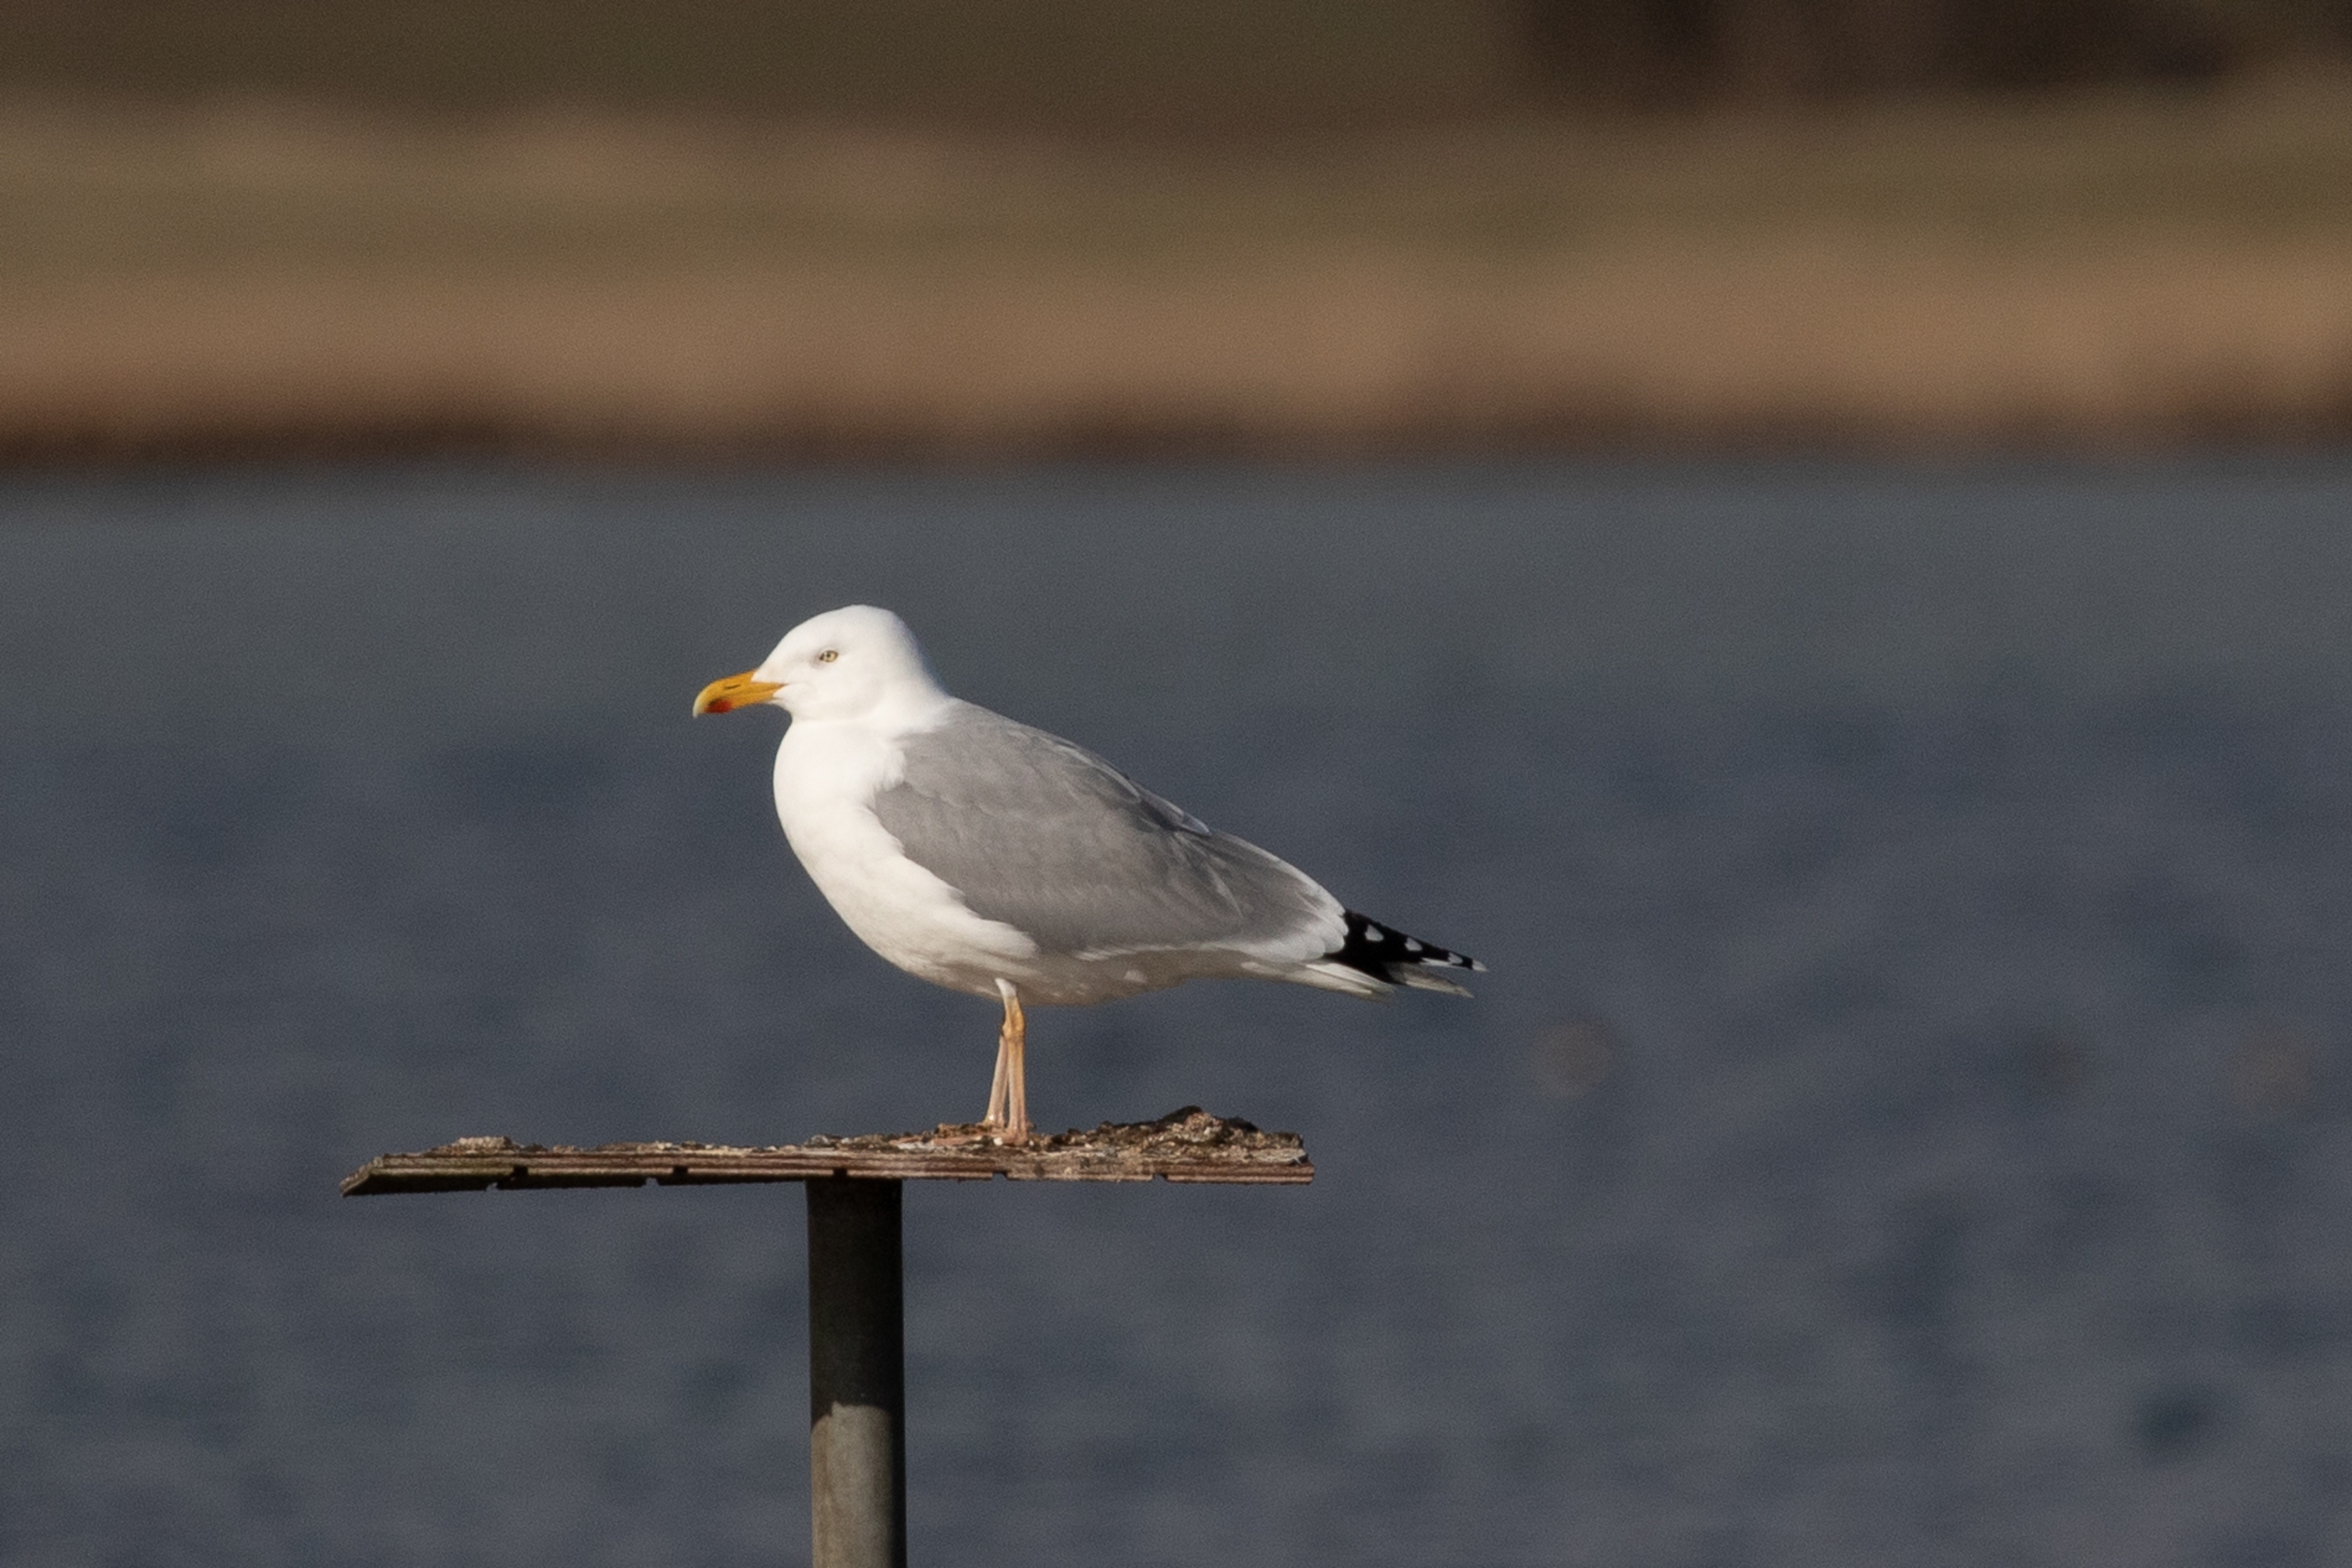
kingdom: Animalia
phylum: Chordata
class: Aves
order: Charadriiformes
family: Laridae
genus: Larus
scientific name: Larus argentatus
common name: Sølvmåge
